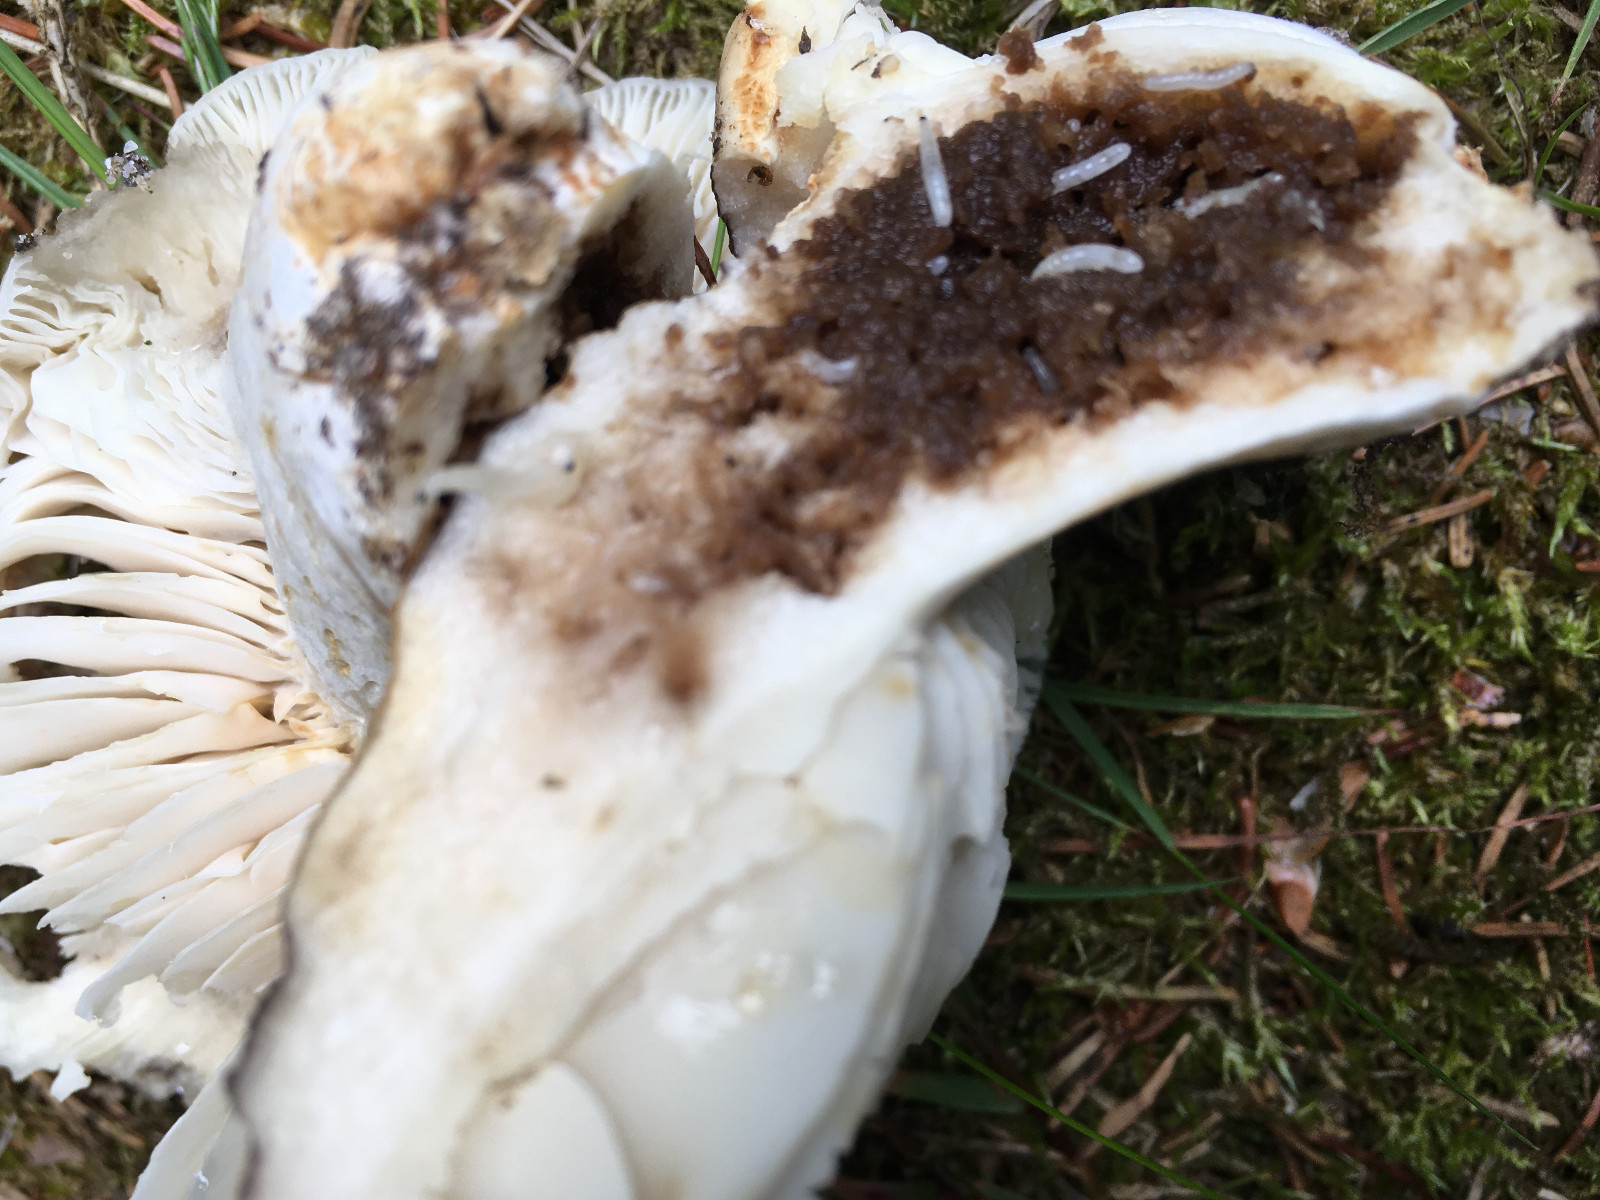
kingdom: Fungi
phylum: Basidiomycota
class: Agaricomycetes
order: Russulales
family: Russulaceae
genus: Russula
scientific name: Russula adusta
